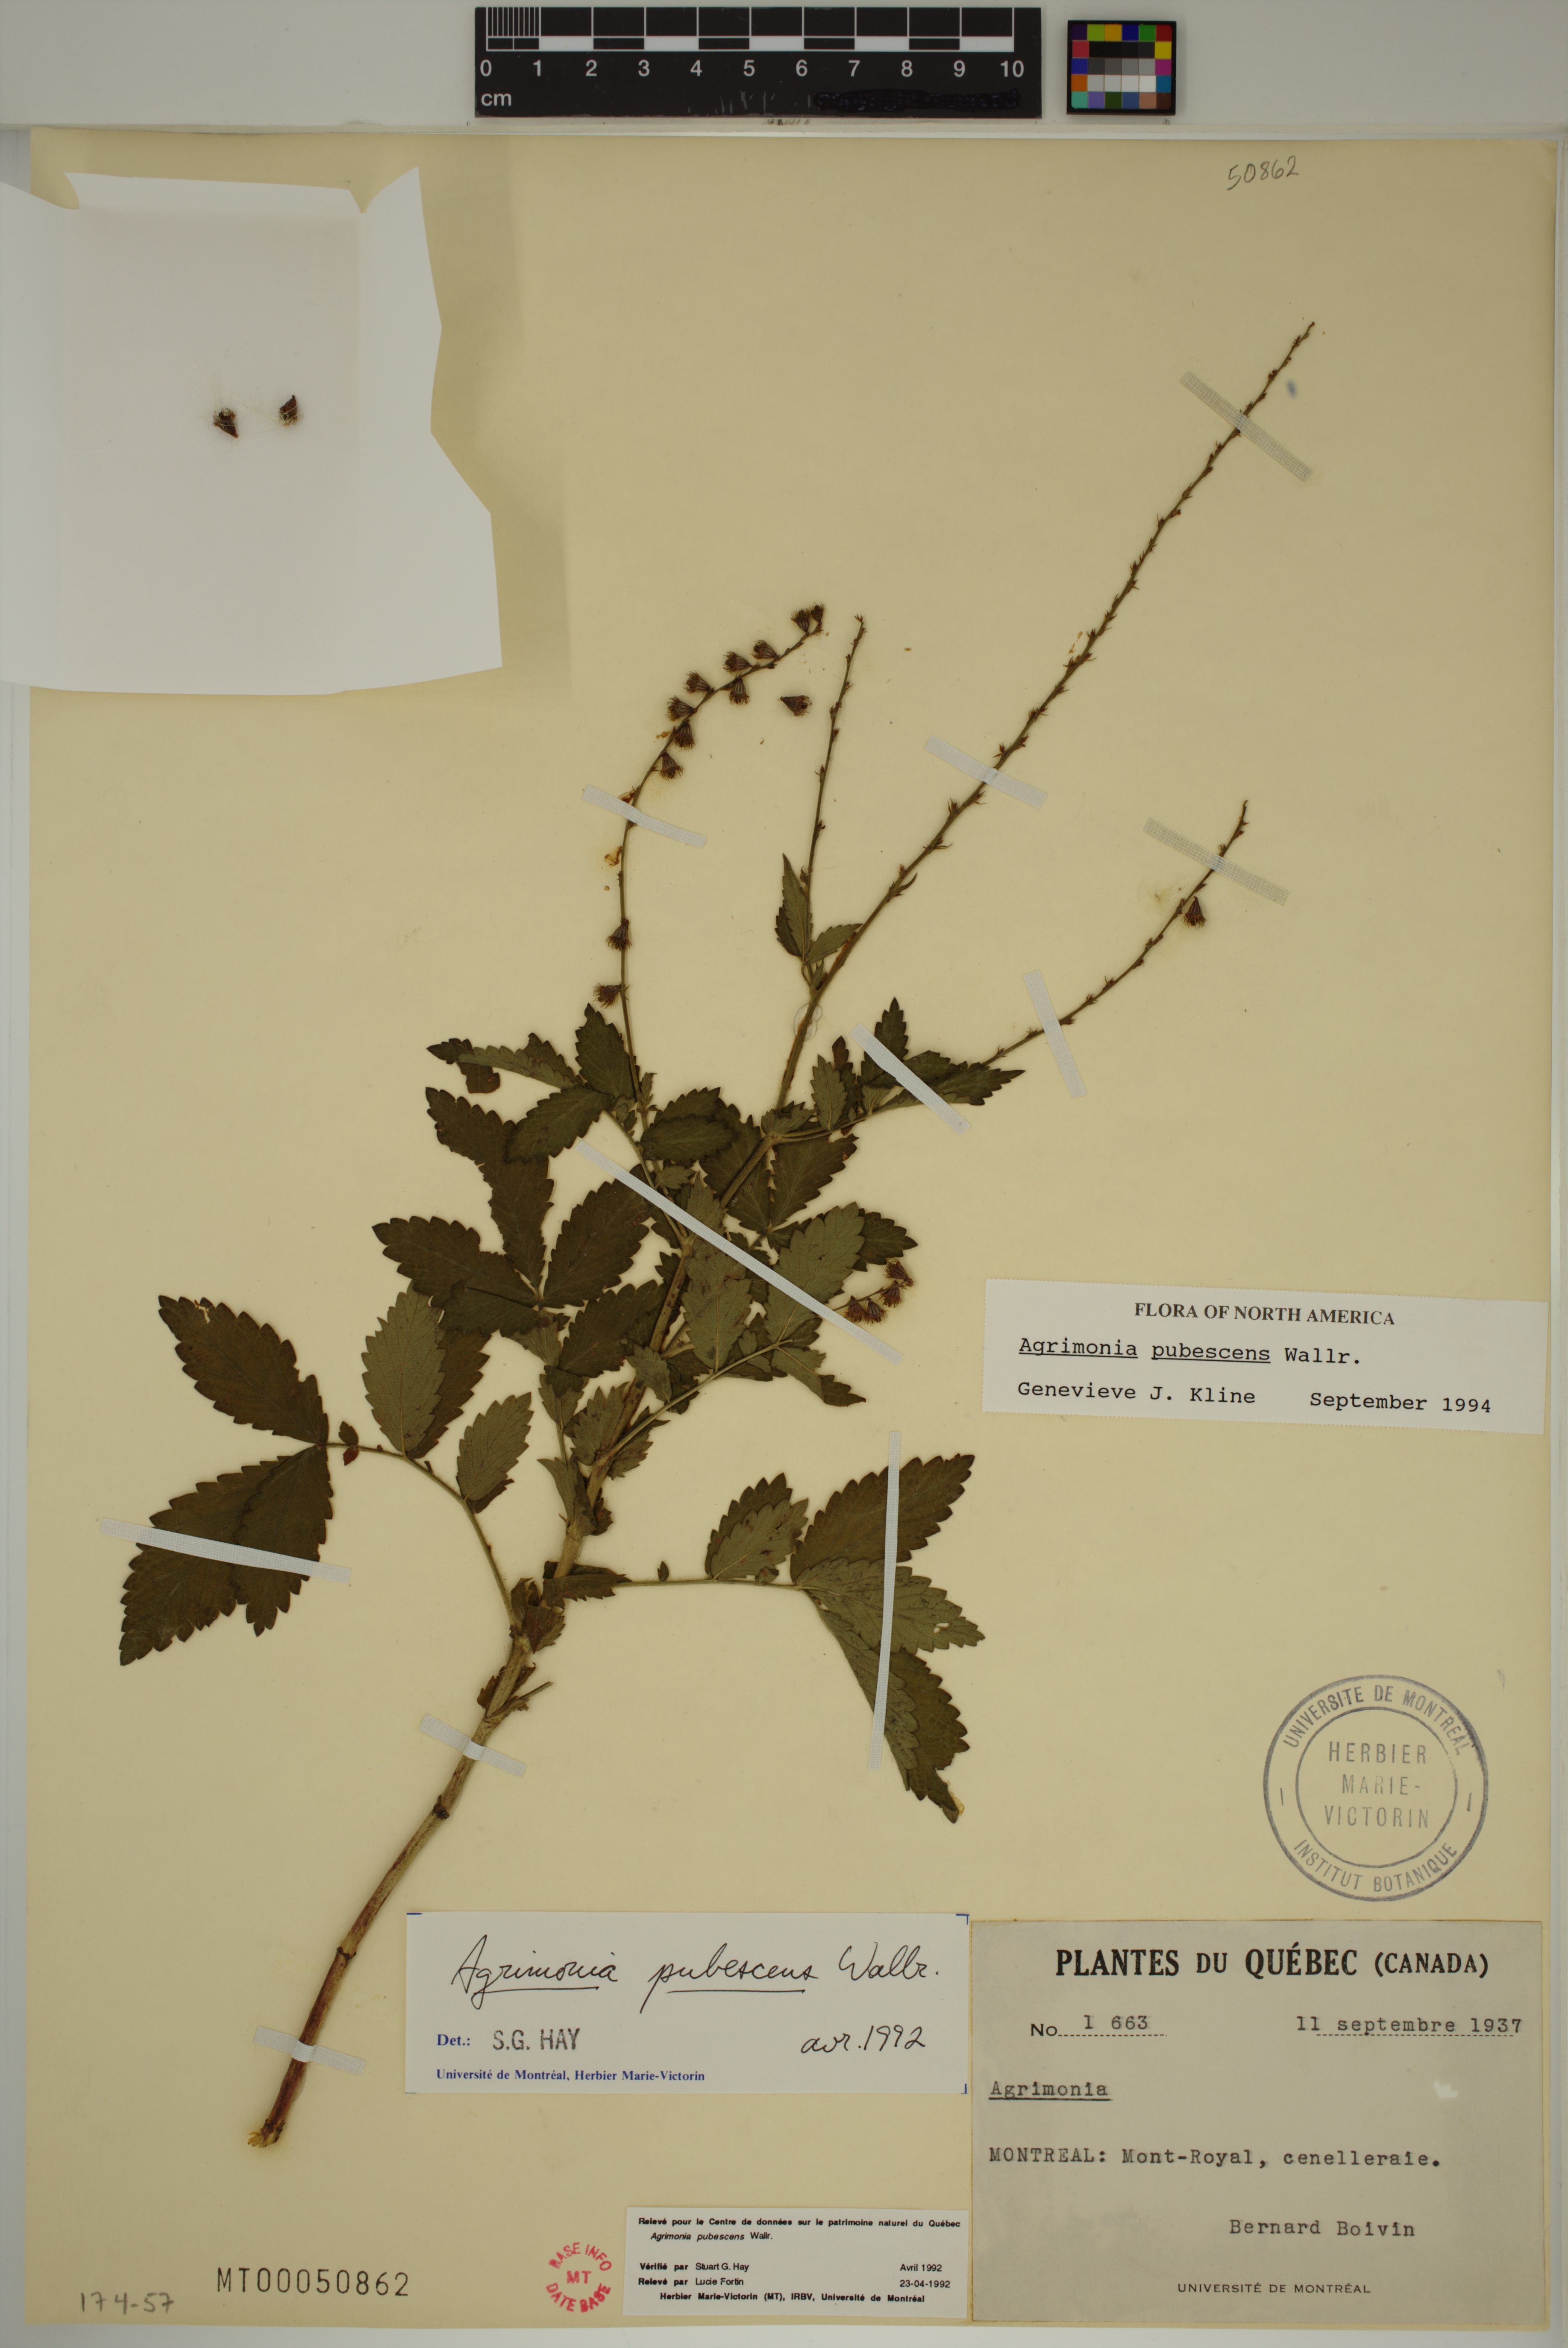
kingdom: Plantae
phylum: Tracheophyta
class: Magnoliopsida
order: Rosales
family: Rosaceae
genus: Agrimonia
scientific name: Agrimonia pubescens
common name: Downy agrimony
